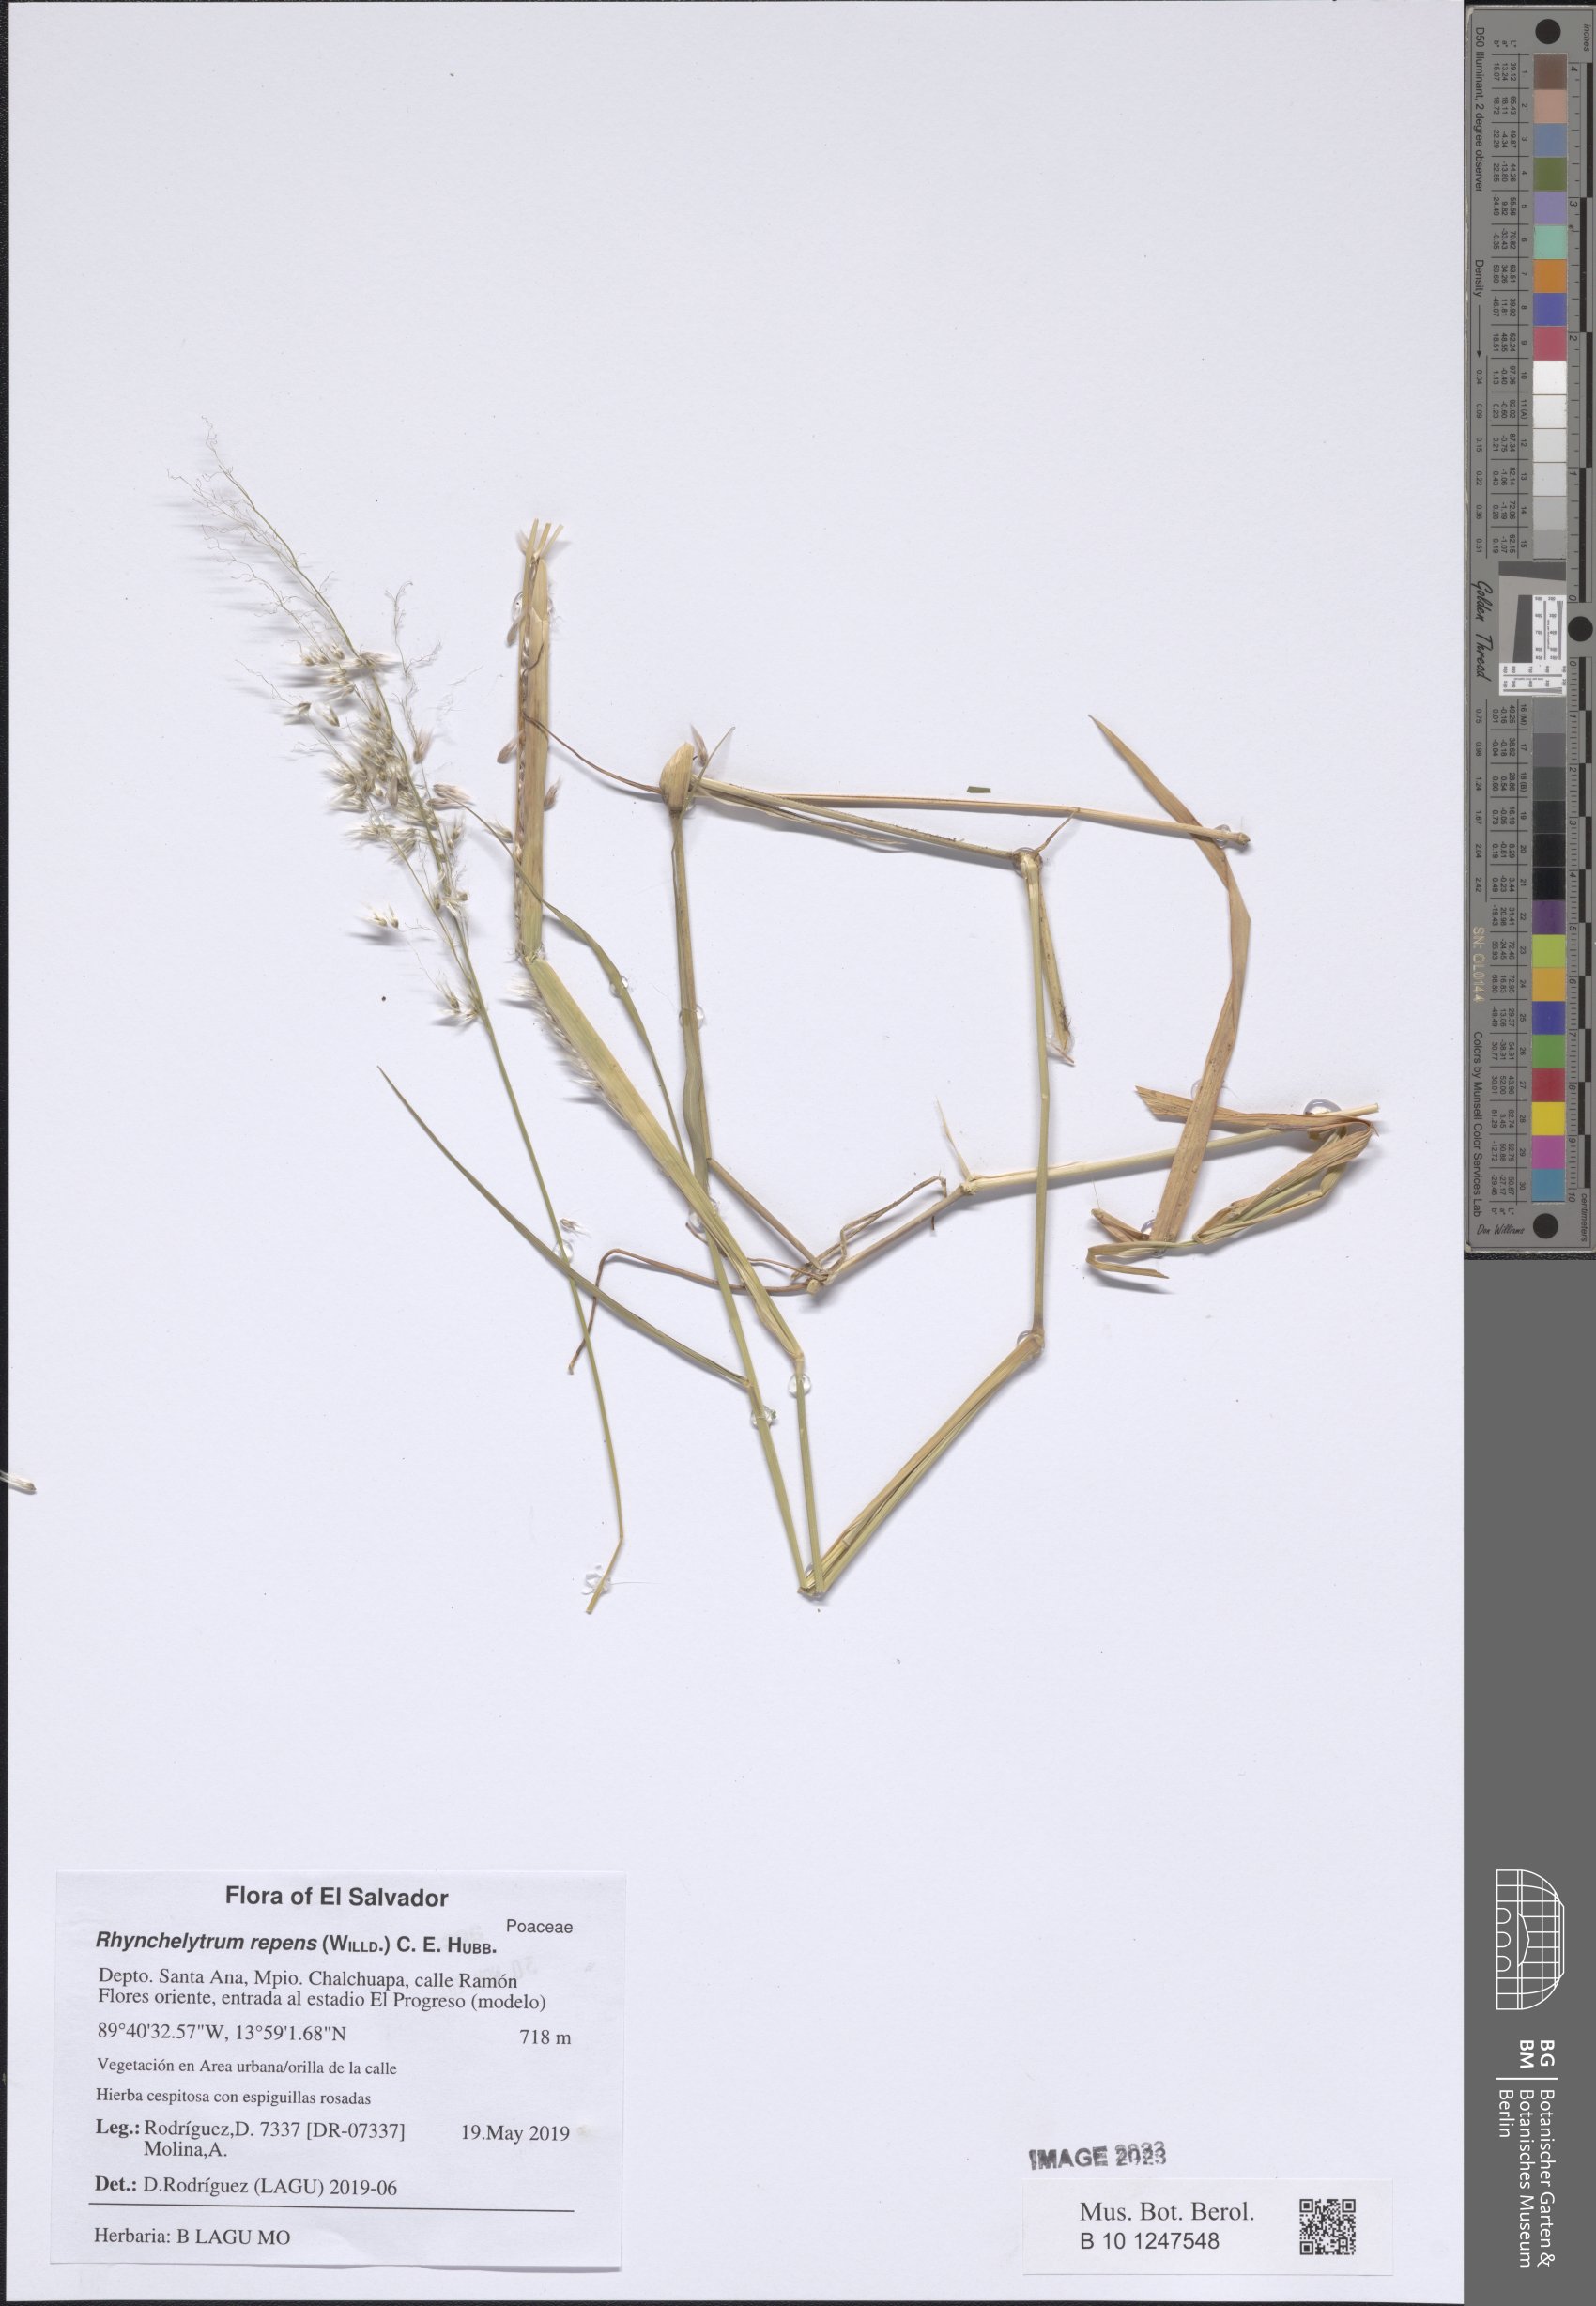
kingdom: Plantae
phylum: Tracheophyta
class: Liliopsida
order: Poales
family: Poaceae
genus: Melinis
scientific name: Melinis repens
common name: Rose natal grass
